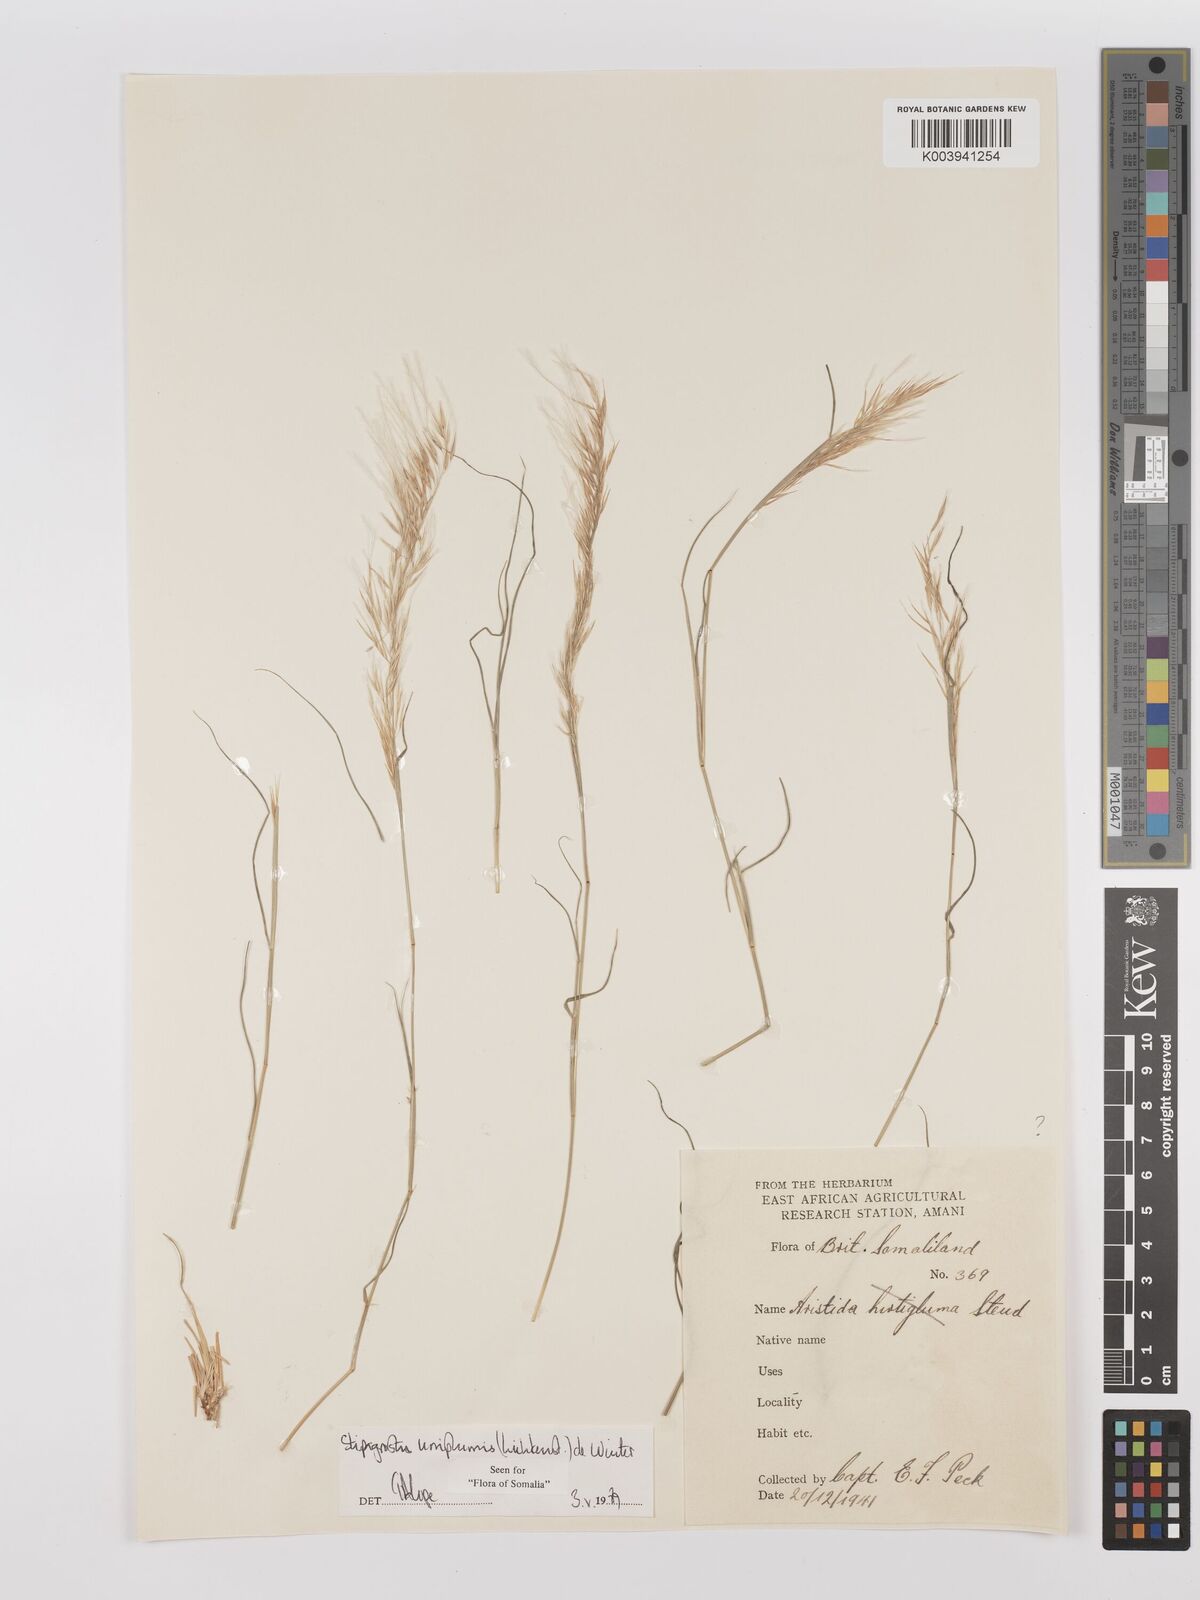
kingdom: Plantae
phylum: Tracheophyta
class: Liliopsida
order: Poales
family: Poaceae
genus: Stipagrostis
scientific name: Stipagrostis uniplumis
